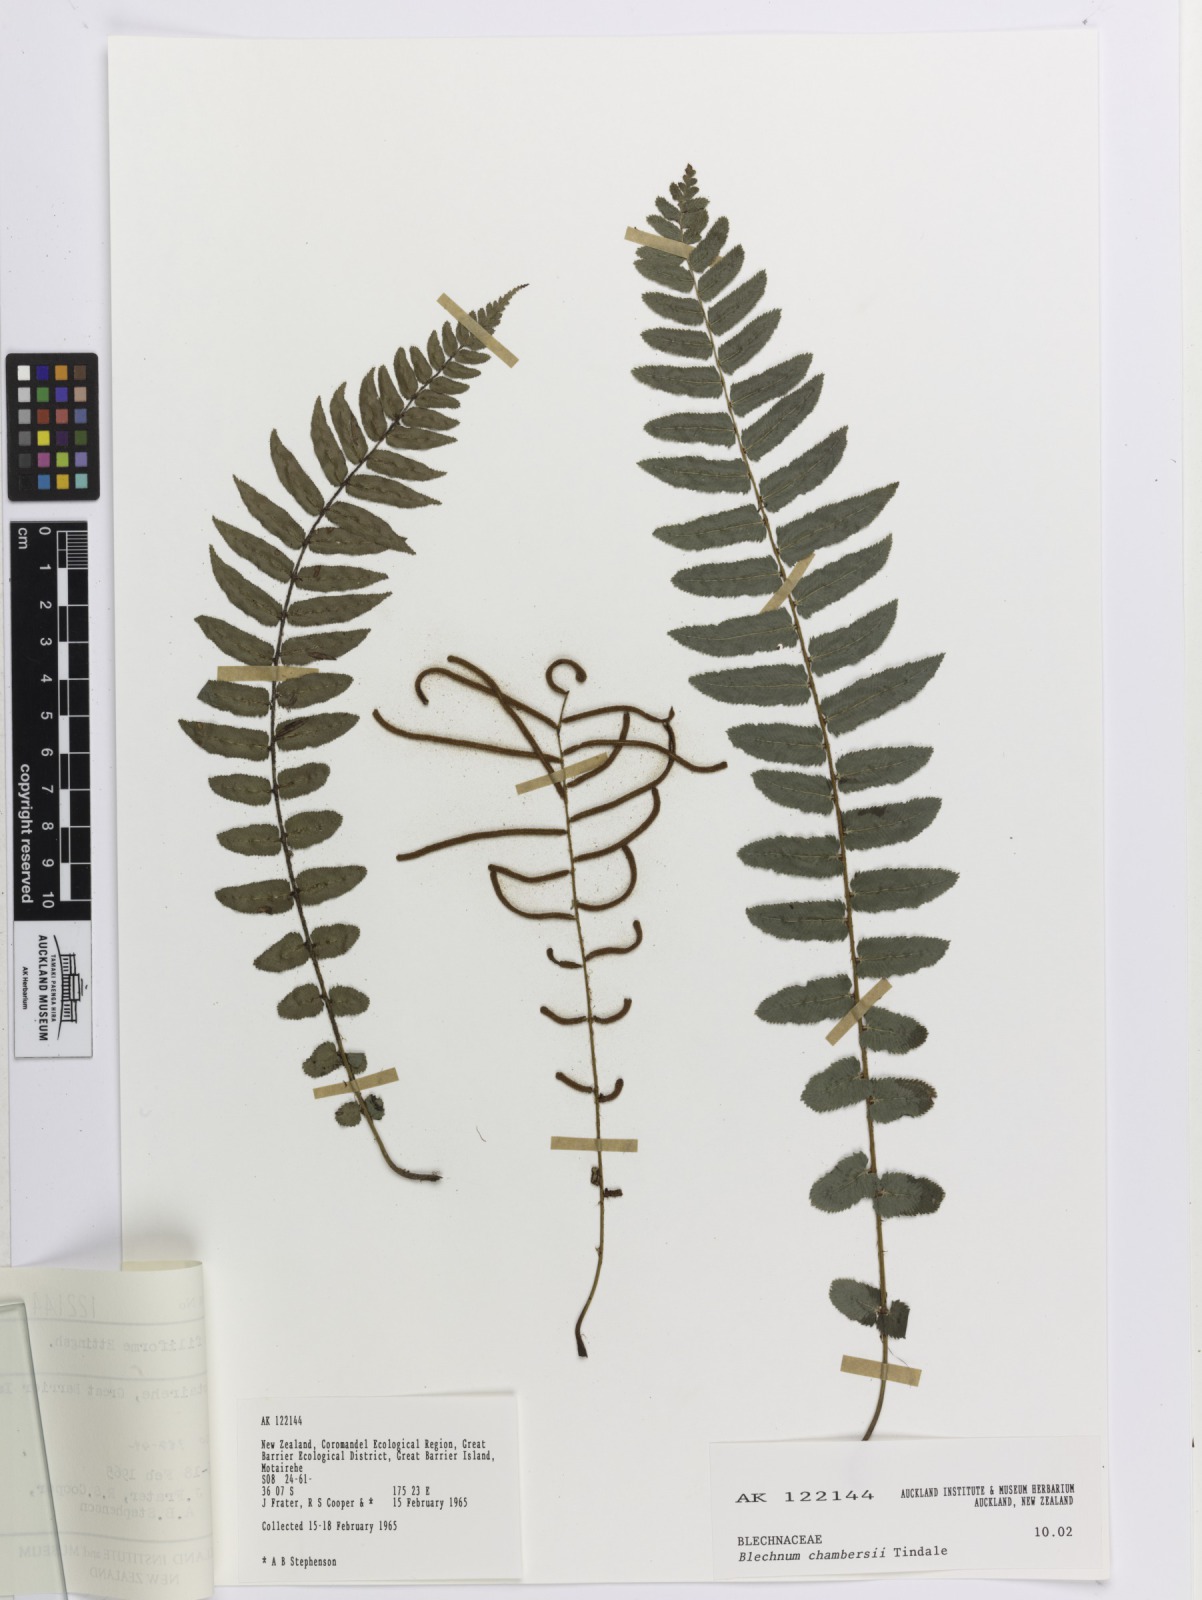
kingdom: Plantae
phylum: Tracheophyta
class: Polypodiopsida
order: Polypodiales
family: Blechnaceae
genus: Austroblechnum
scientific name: Austroblechnum lanceolatum
